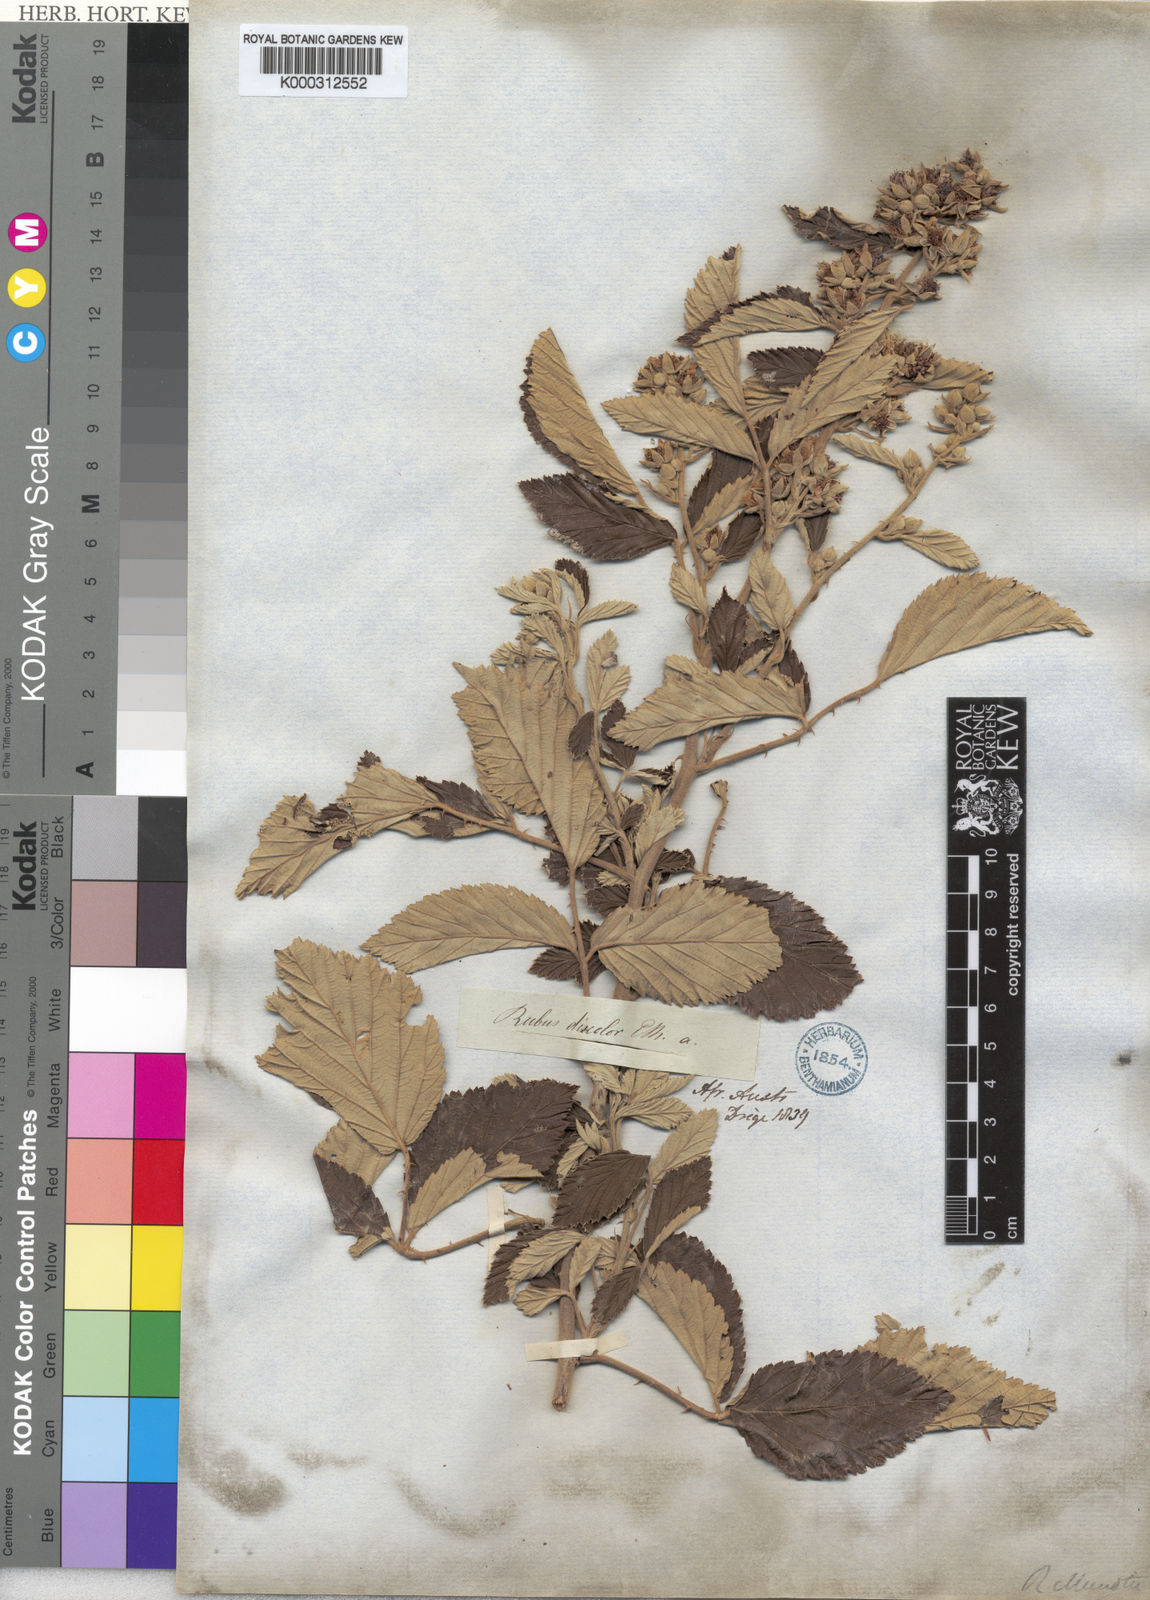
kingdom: Plantae
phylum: Tracheophyta
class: Magnoliopsida
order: Rosales
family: Rosaceae
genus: Rubus
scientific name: Rubus ulmifolius
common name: Elmleaf blackberry
